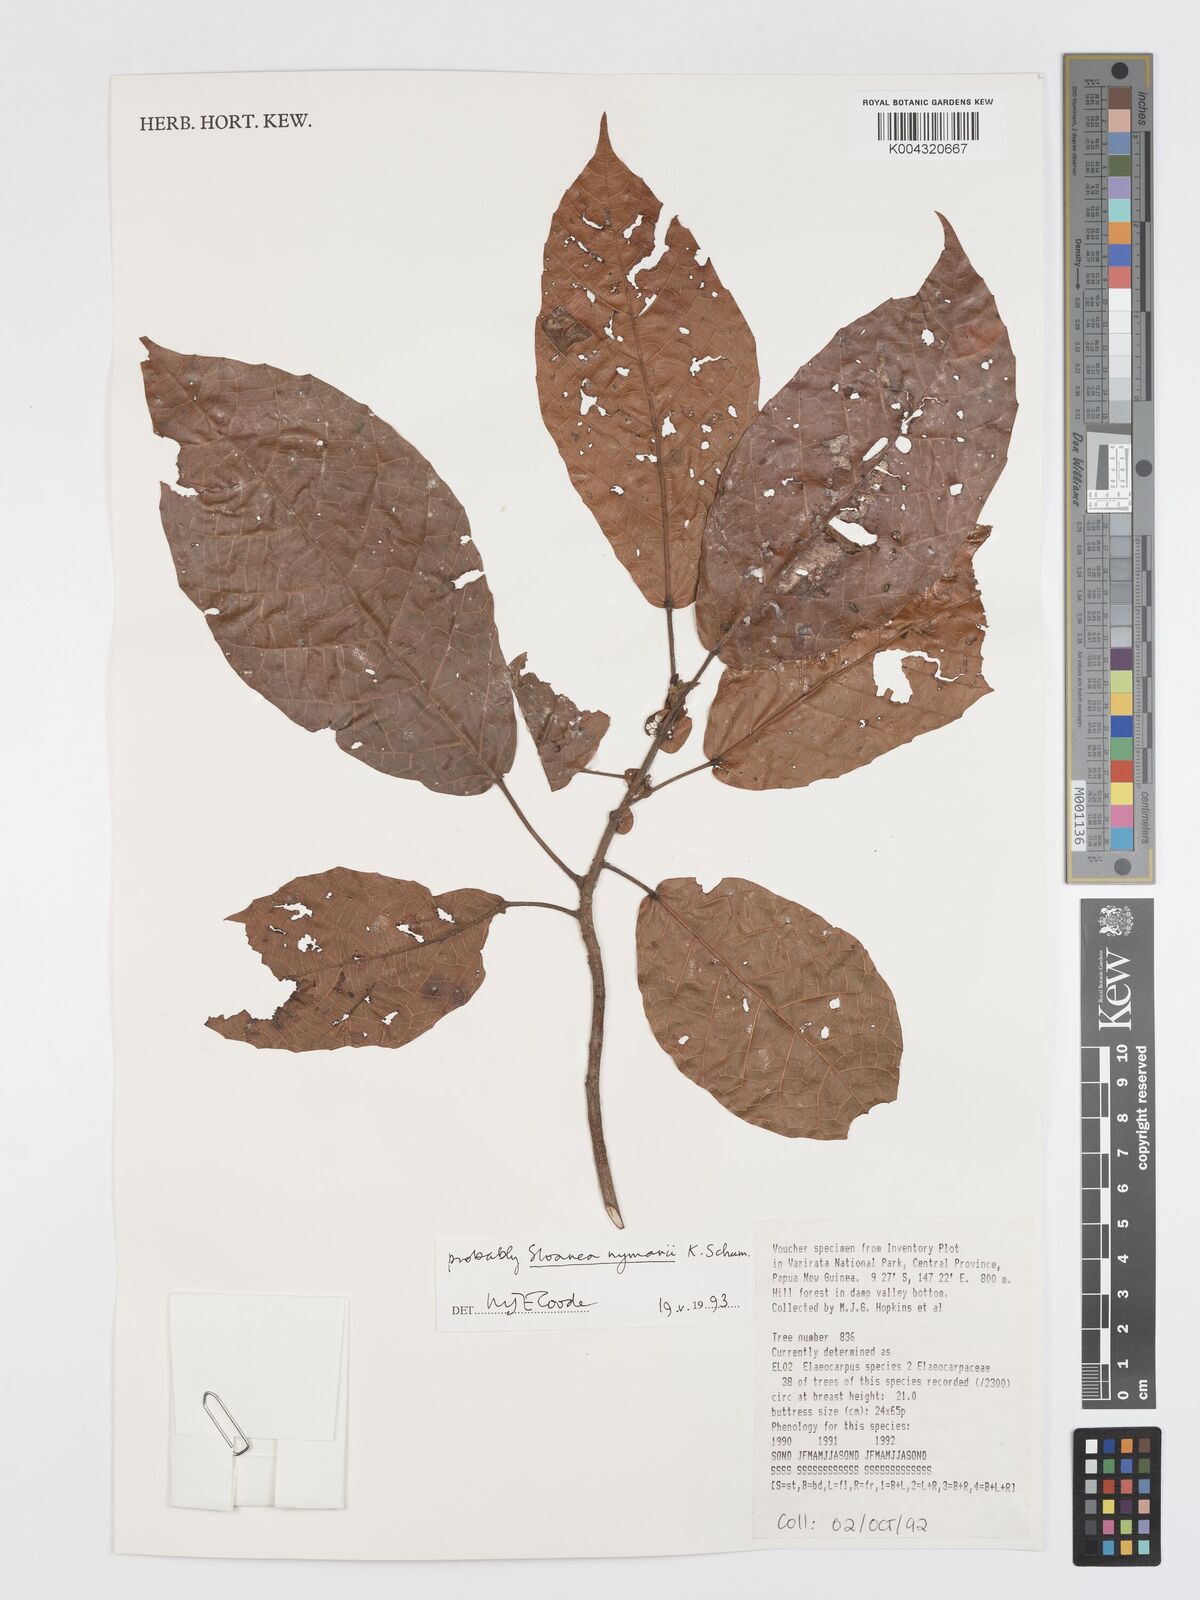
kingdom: Plantae
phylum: Tracheophyta
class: Magnoliopsida
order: Oxalidales
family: Elaeocarpaceae
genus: Sloanea
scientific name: Sloanea nymanii
